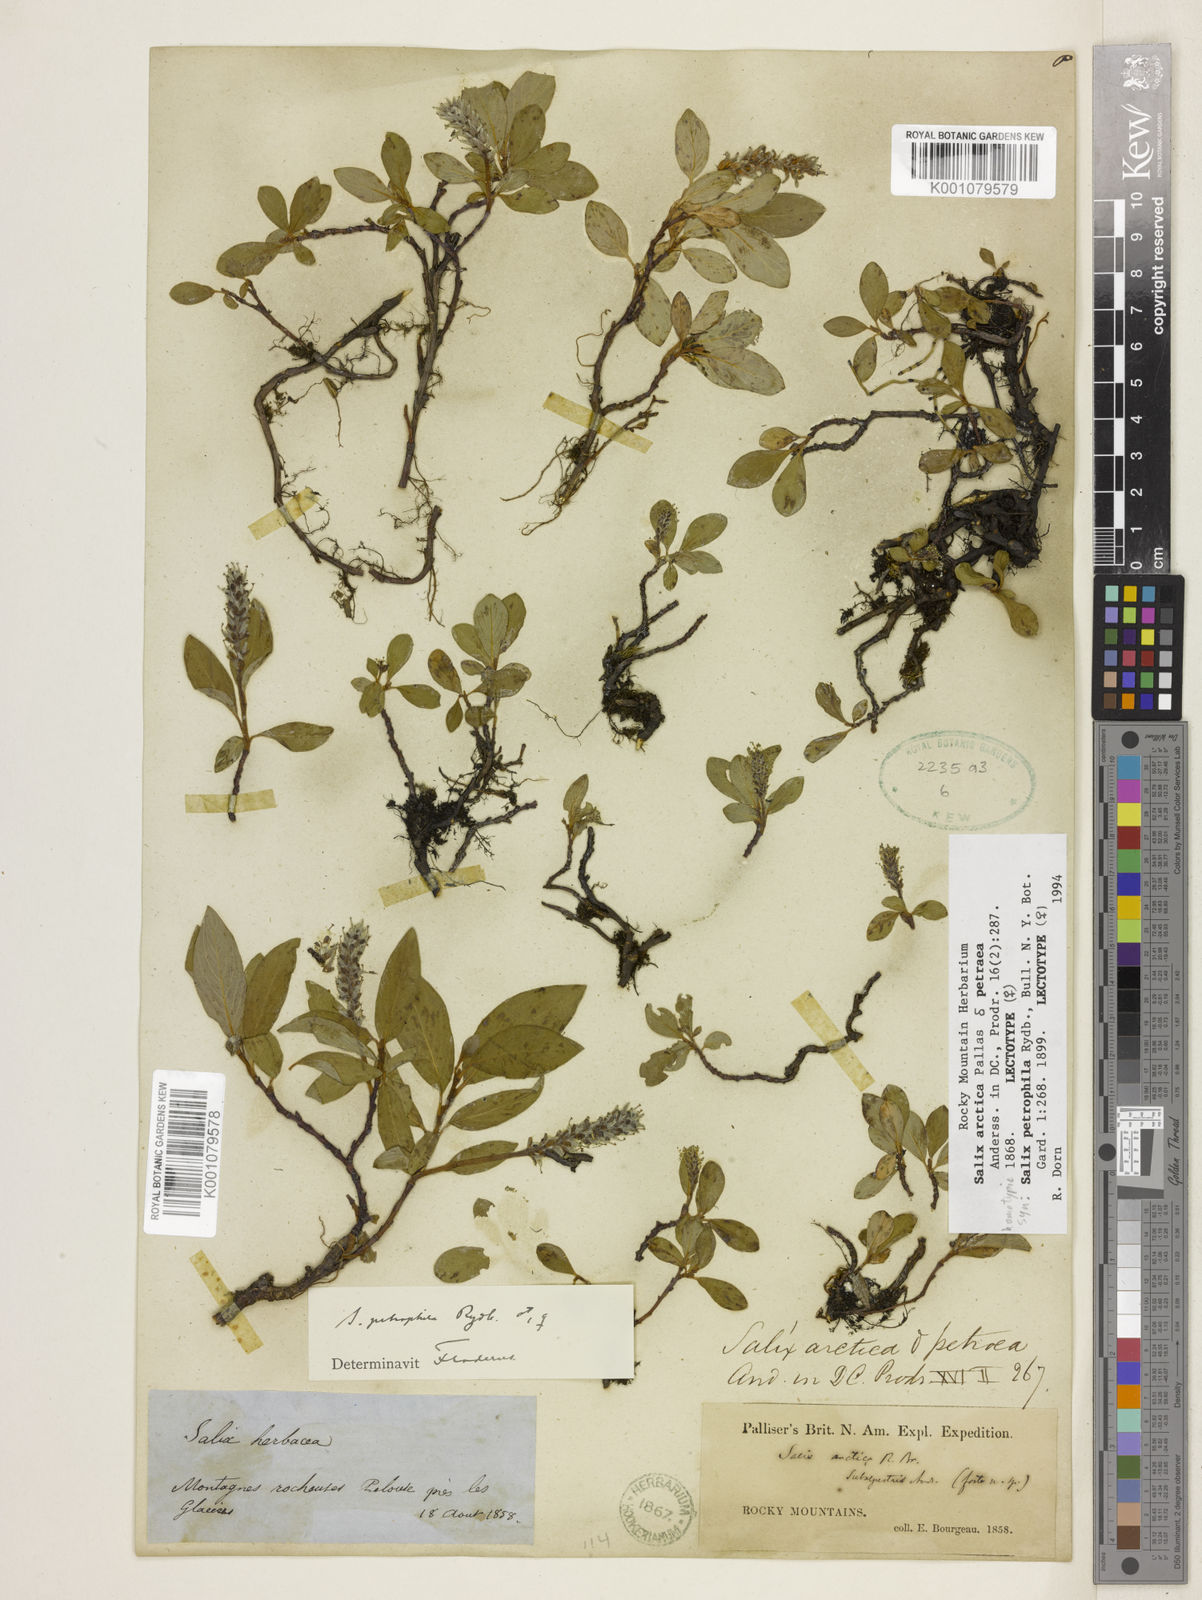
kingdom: Plantae
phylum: Tracheophyta
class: Magnoliopsida
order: Malpighiales
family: Salicaceae
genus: Salix
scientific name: Salix petrophila
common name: Rocky mountain willow
